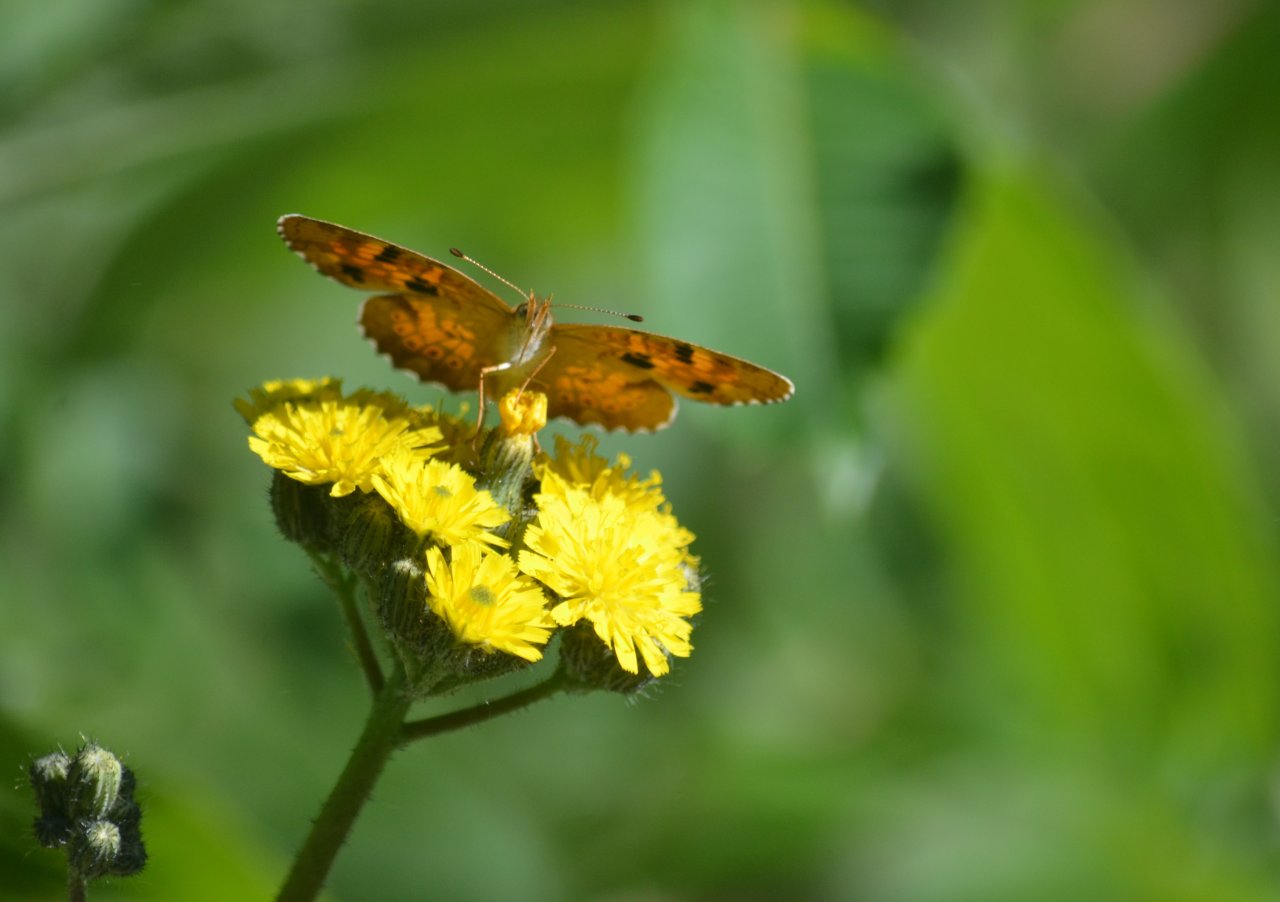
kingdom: Animalia
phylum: Arthropoda
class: Insecta
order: Lepidoptera
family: Nymphalidae
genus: Phyciodes
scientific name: Phyciodes tharos
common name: Northern Crescent
